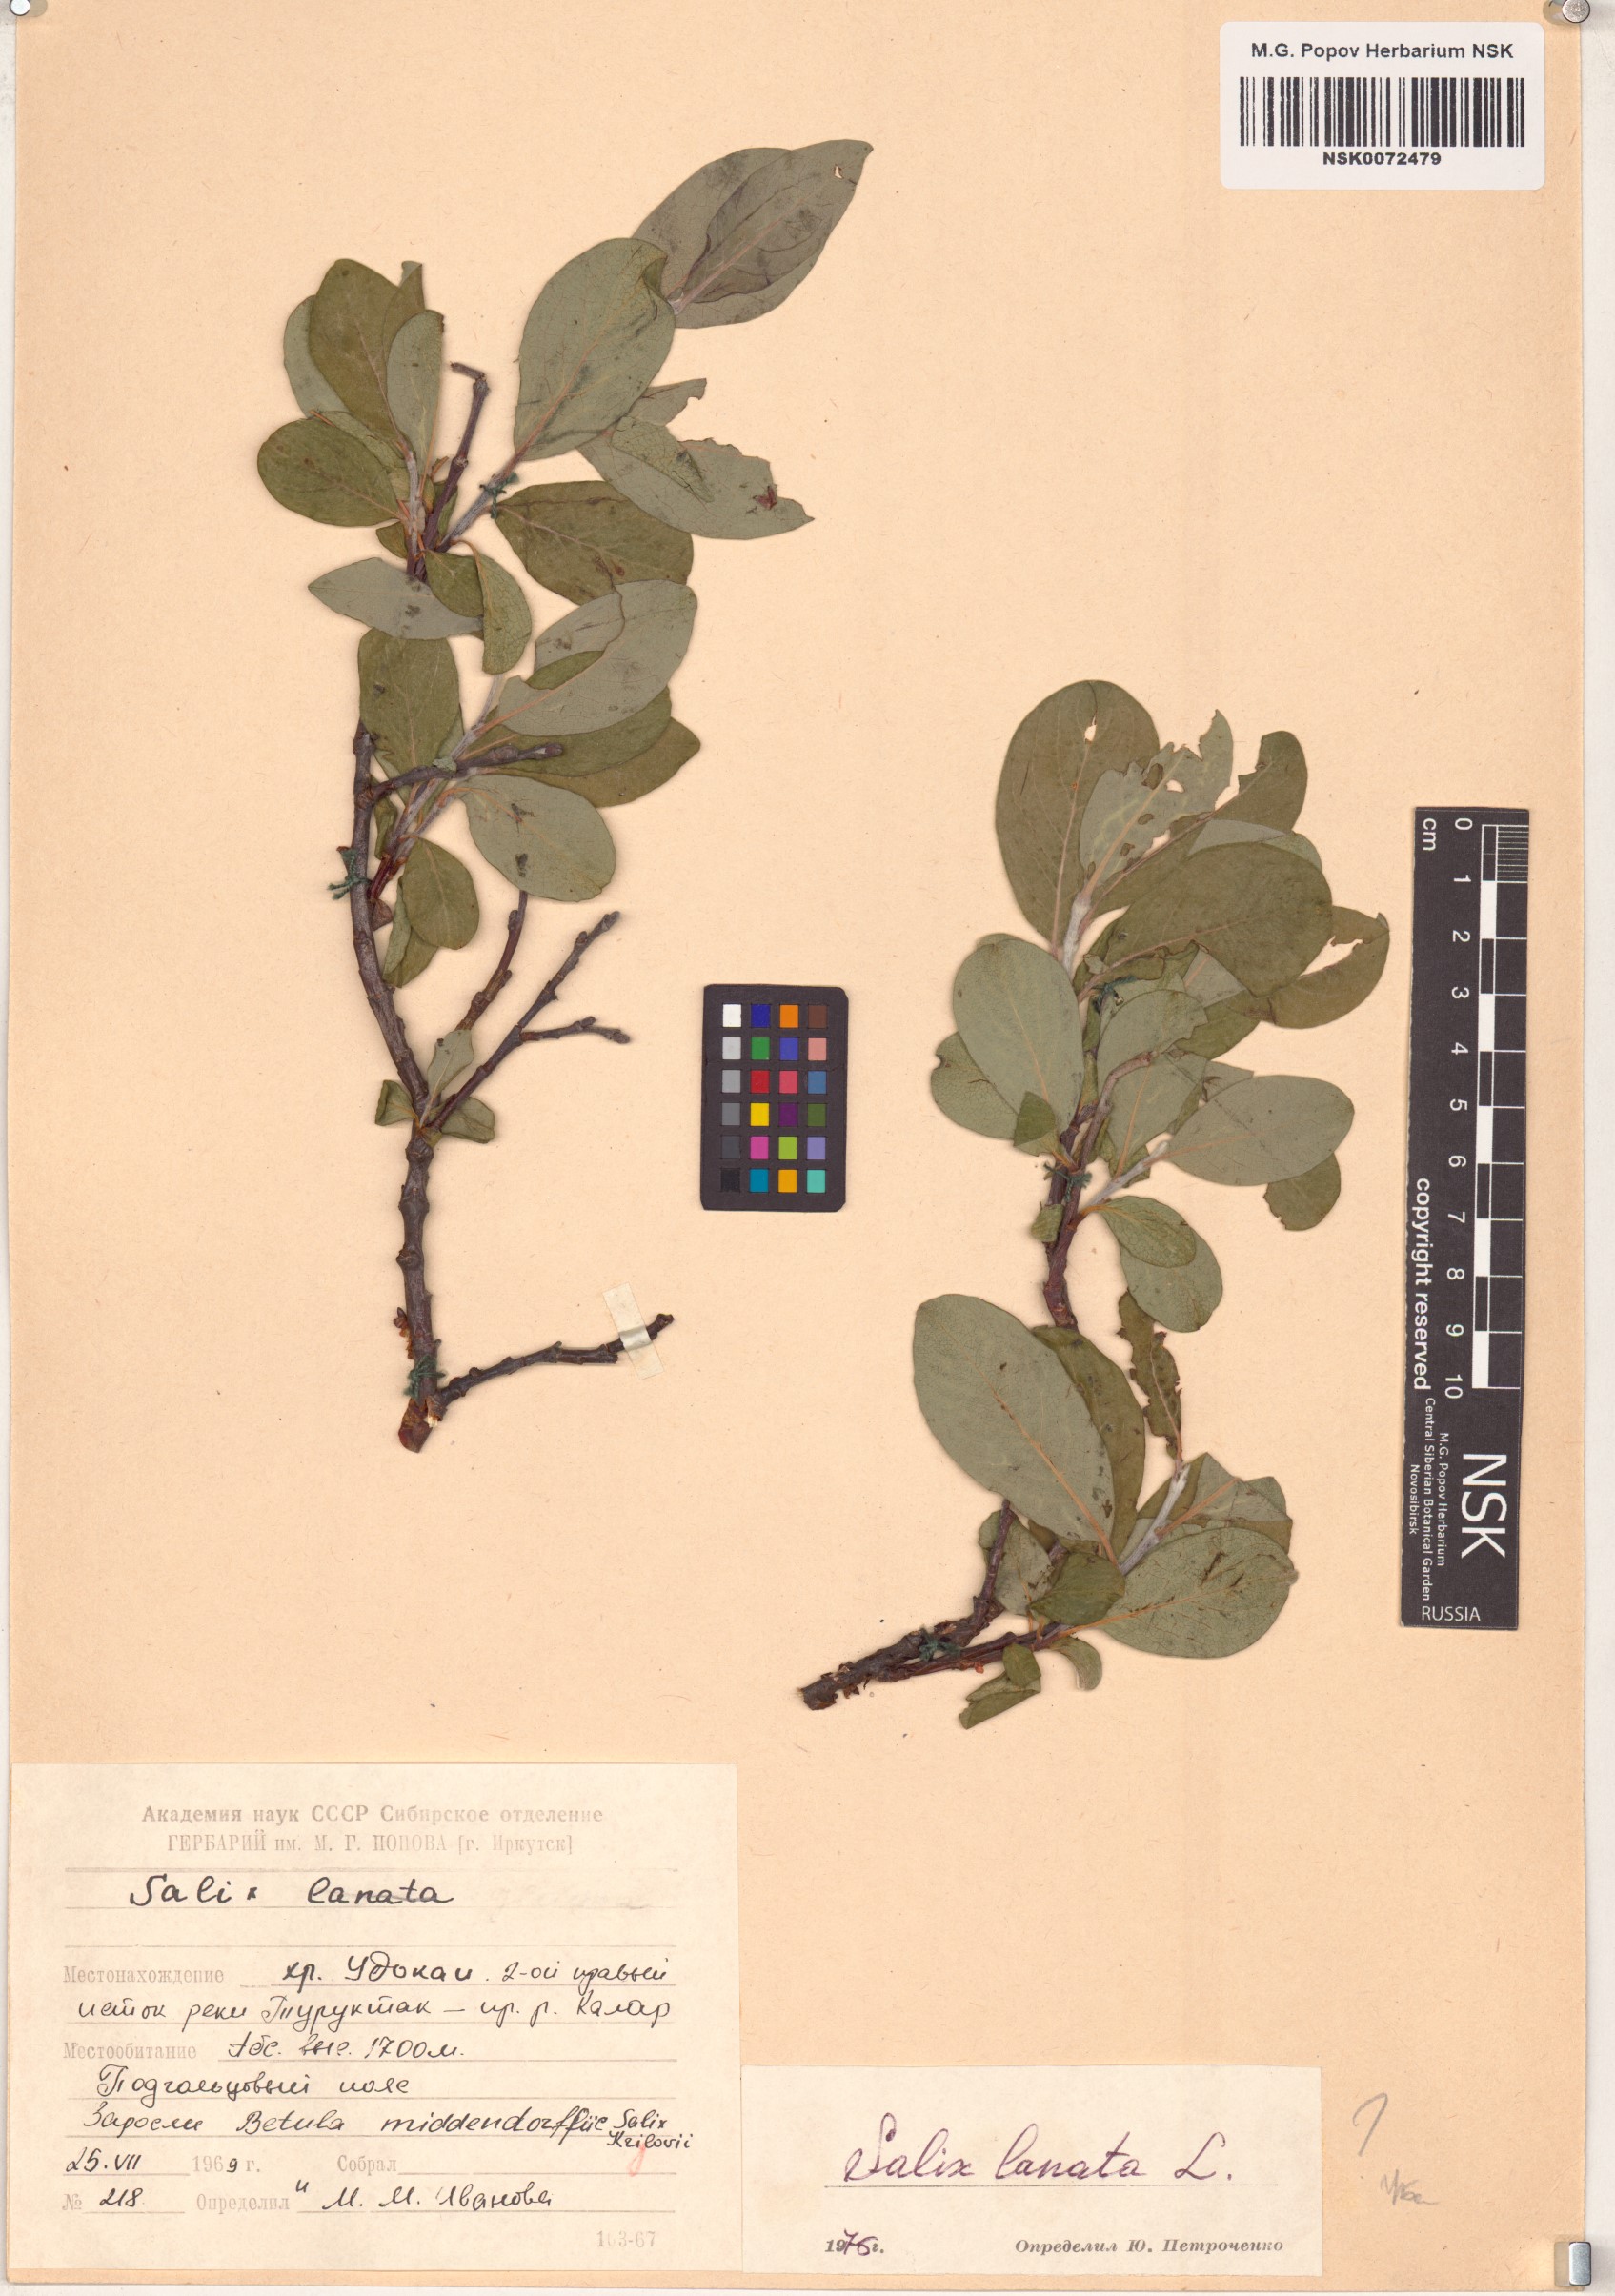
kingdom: Plantae
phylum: Tracheophyta
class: Magnoliopsida
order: Malpighiales
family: Salicaceae
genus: Salix
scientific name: Salix lanata
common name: Woolly willow
